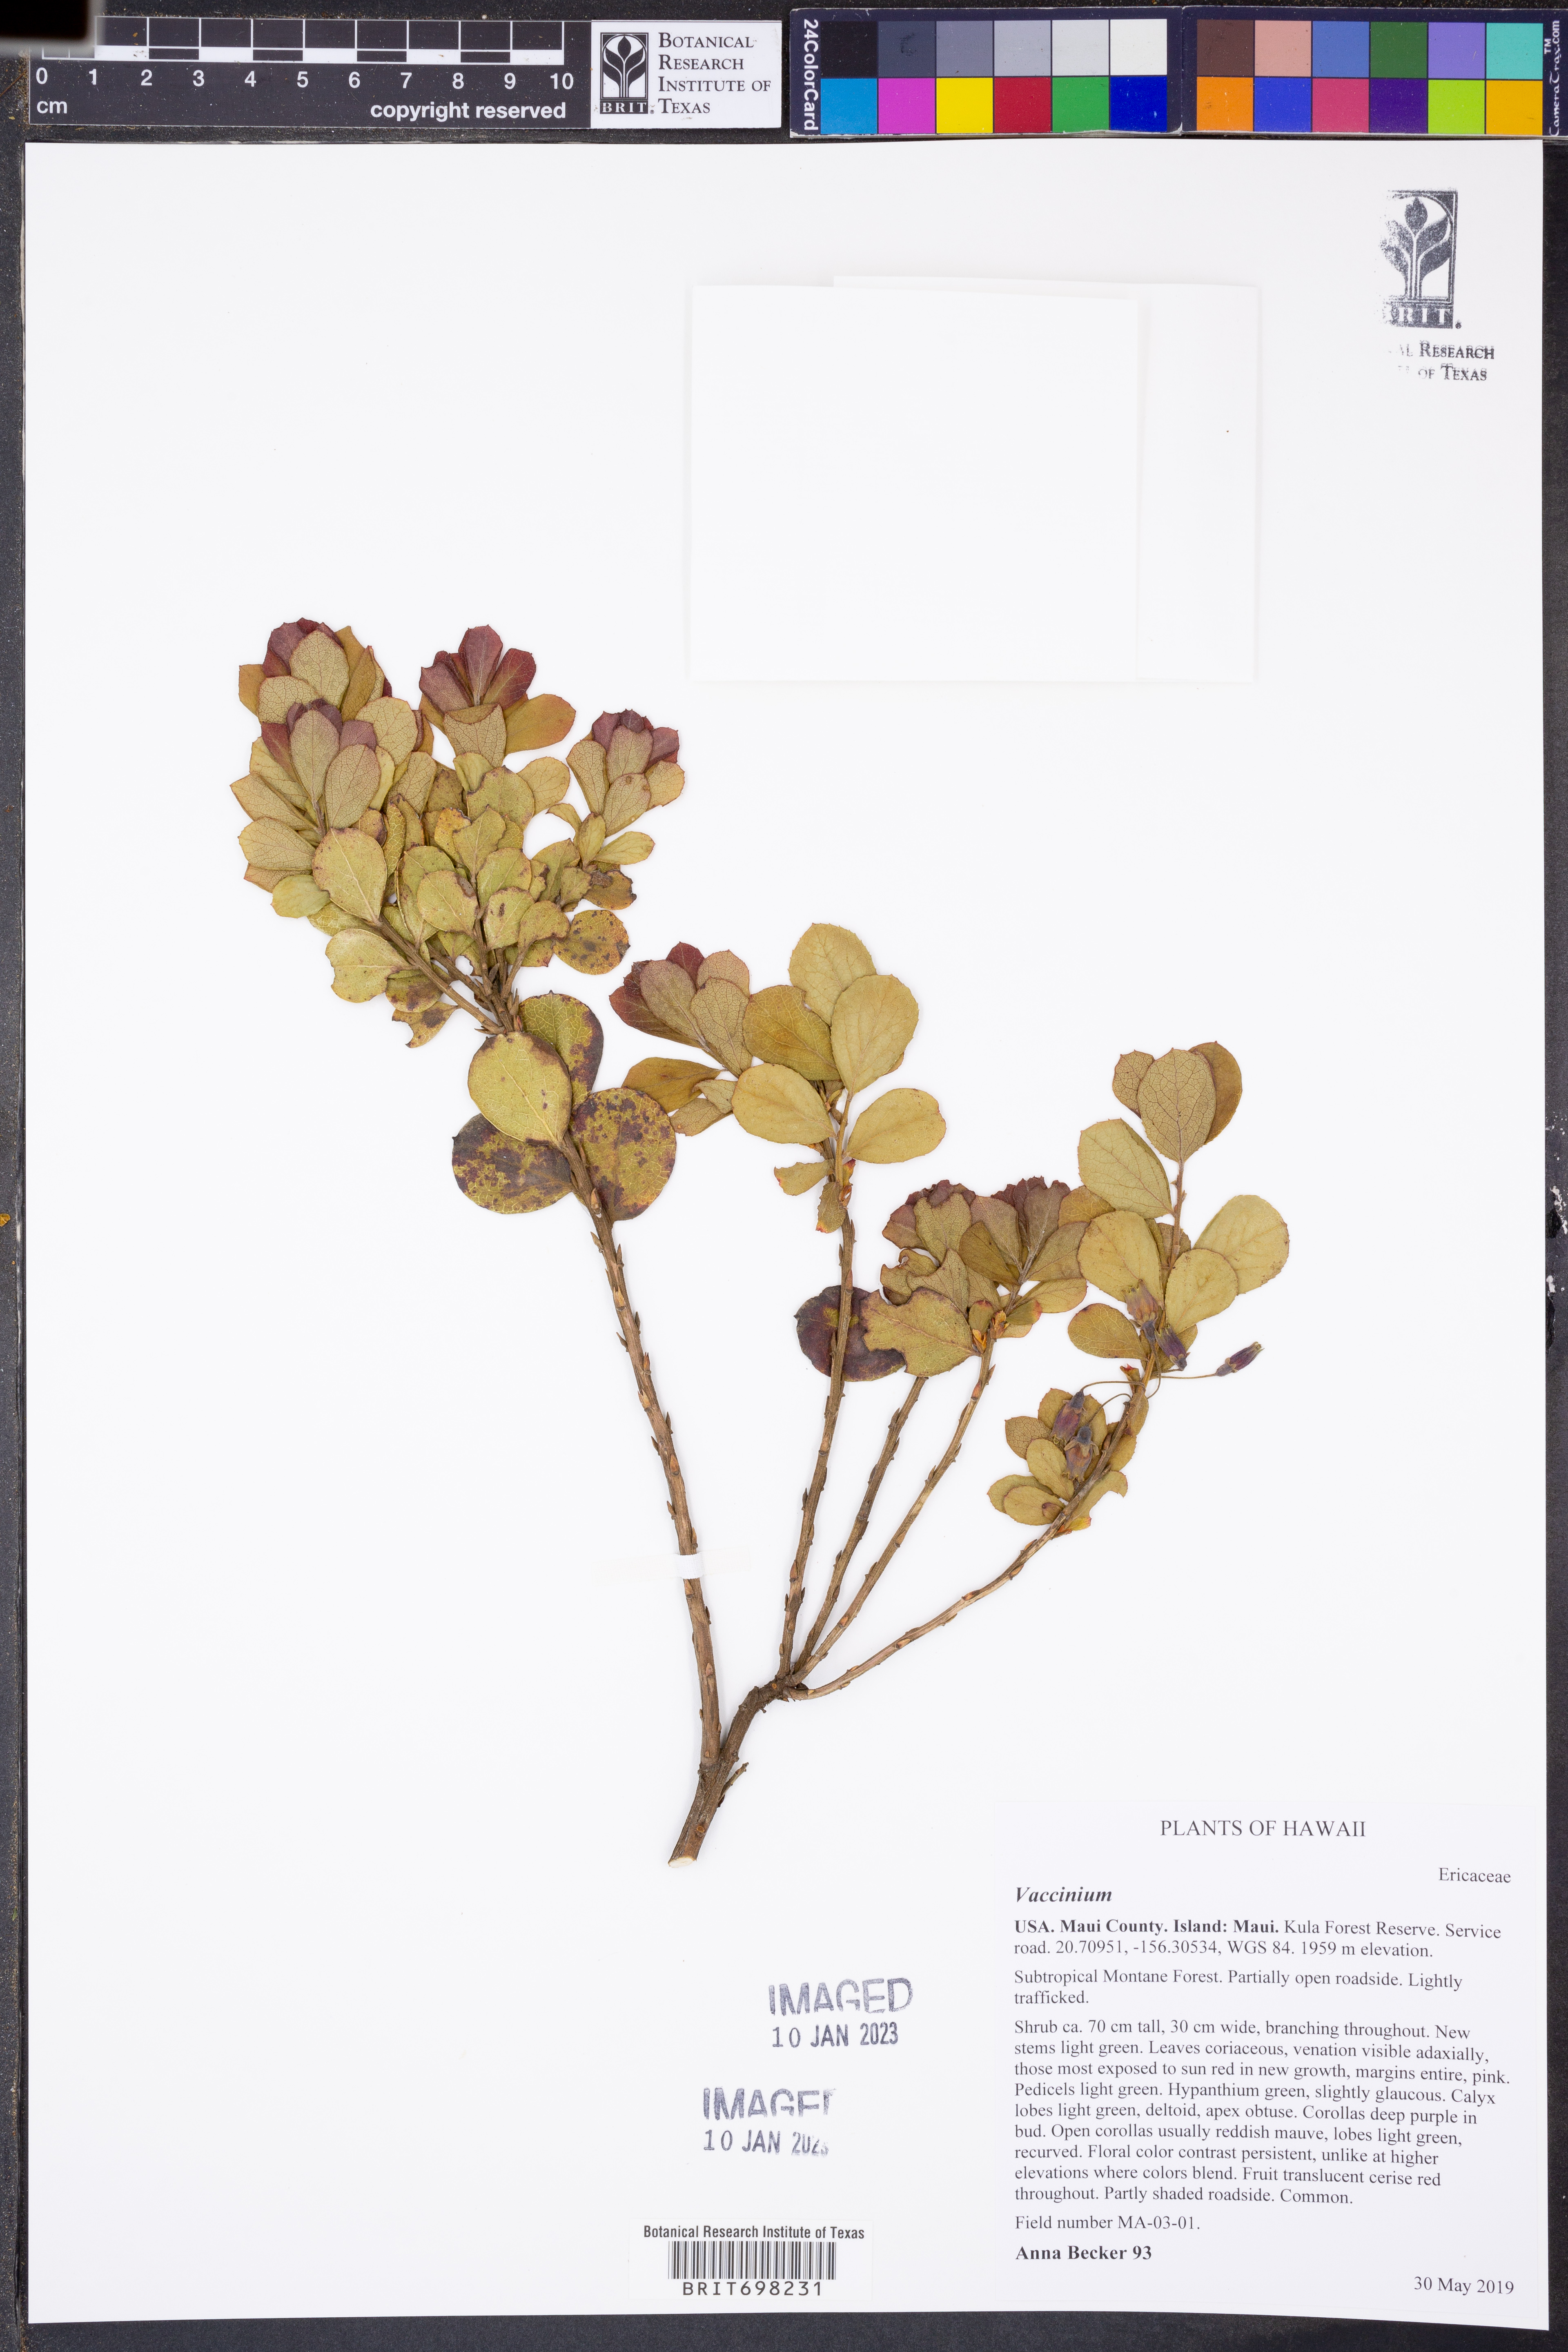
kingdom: Plantae
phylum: Tracheophyta
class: Magnoliopsida
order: Ericales
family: Ericaceae
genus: Vaccinium
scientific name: Vaccinium
